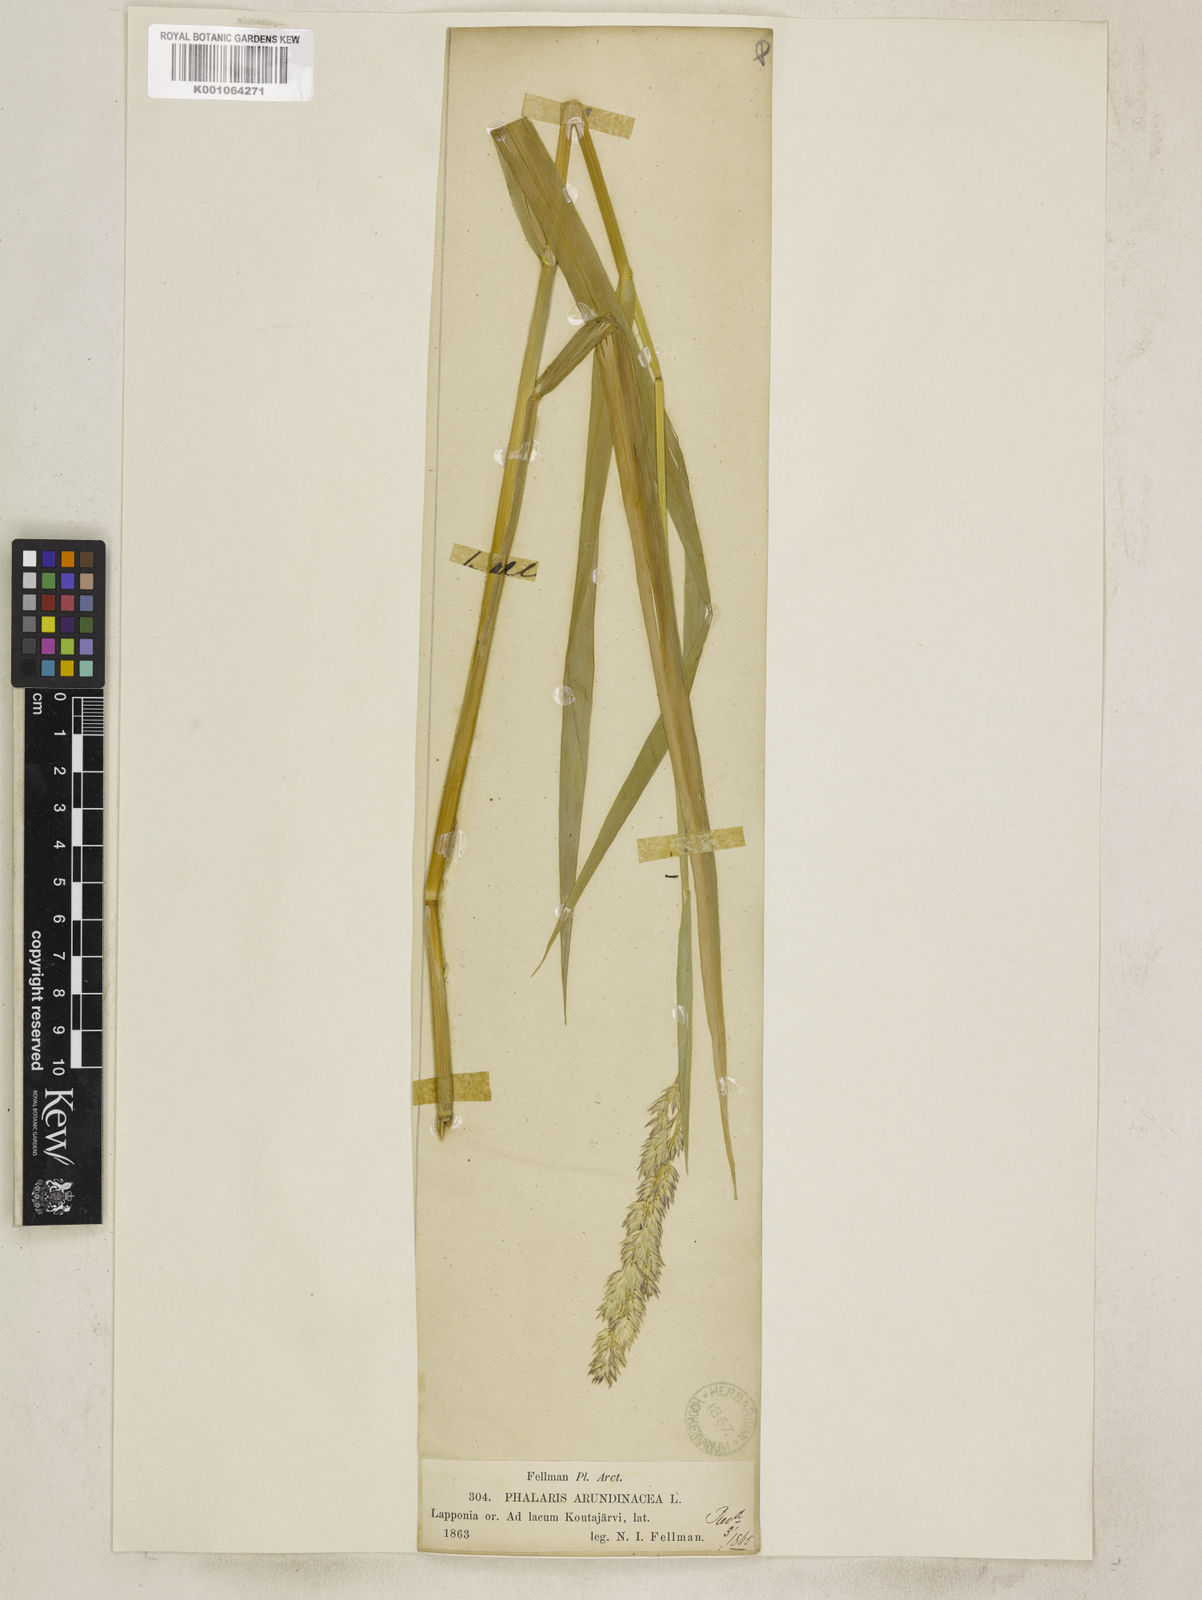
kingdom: Plantae
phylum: Tracheophyta
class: Liliopsida
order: Poales
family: Poaceae
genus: Phalaris
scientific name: Phalaris arundinacea
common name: Reed canary-grass
